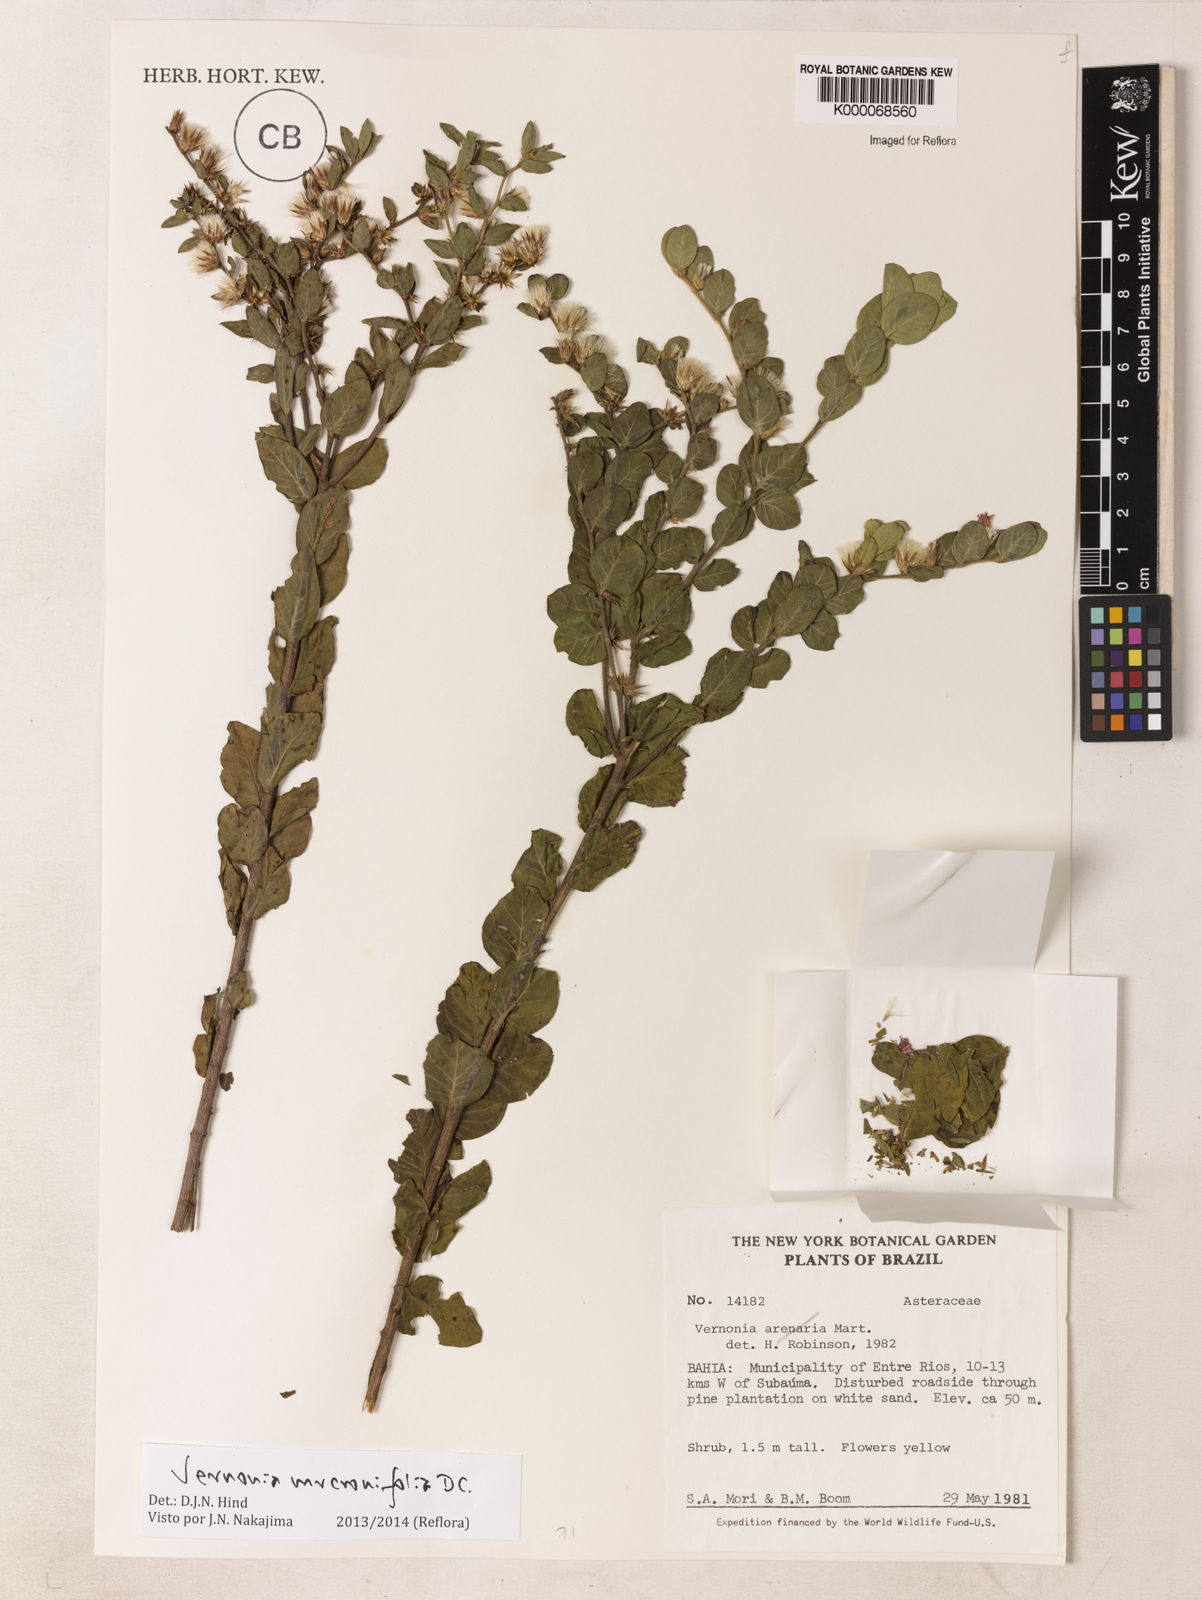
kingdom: Plantae
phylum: Tracheophyta
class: Magnoliopsida
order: Asterales
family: Asteraceae
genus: Lepidaploa
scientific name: Lepidaploa mucronifolia
